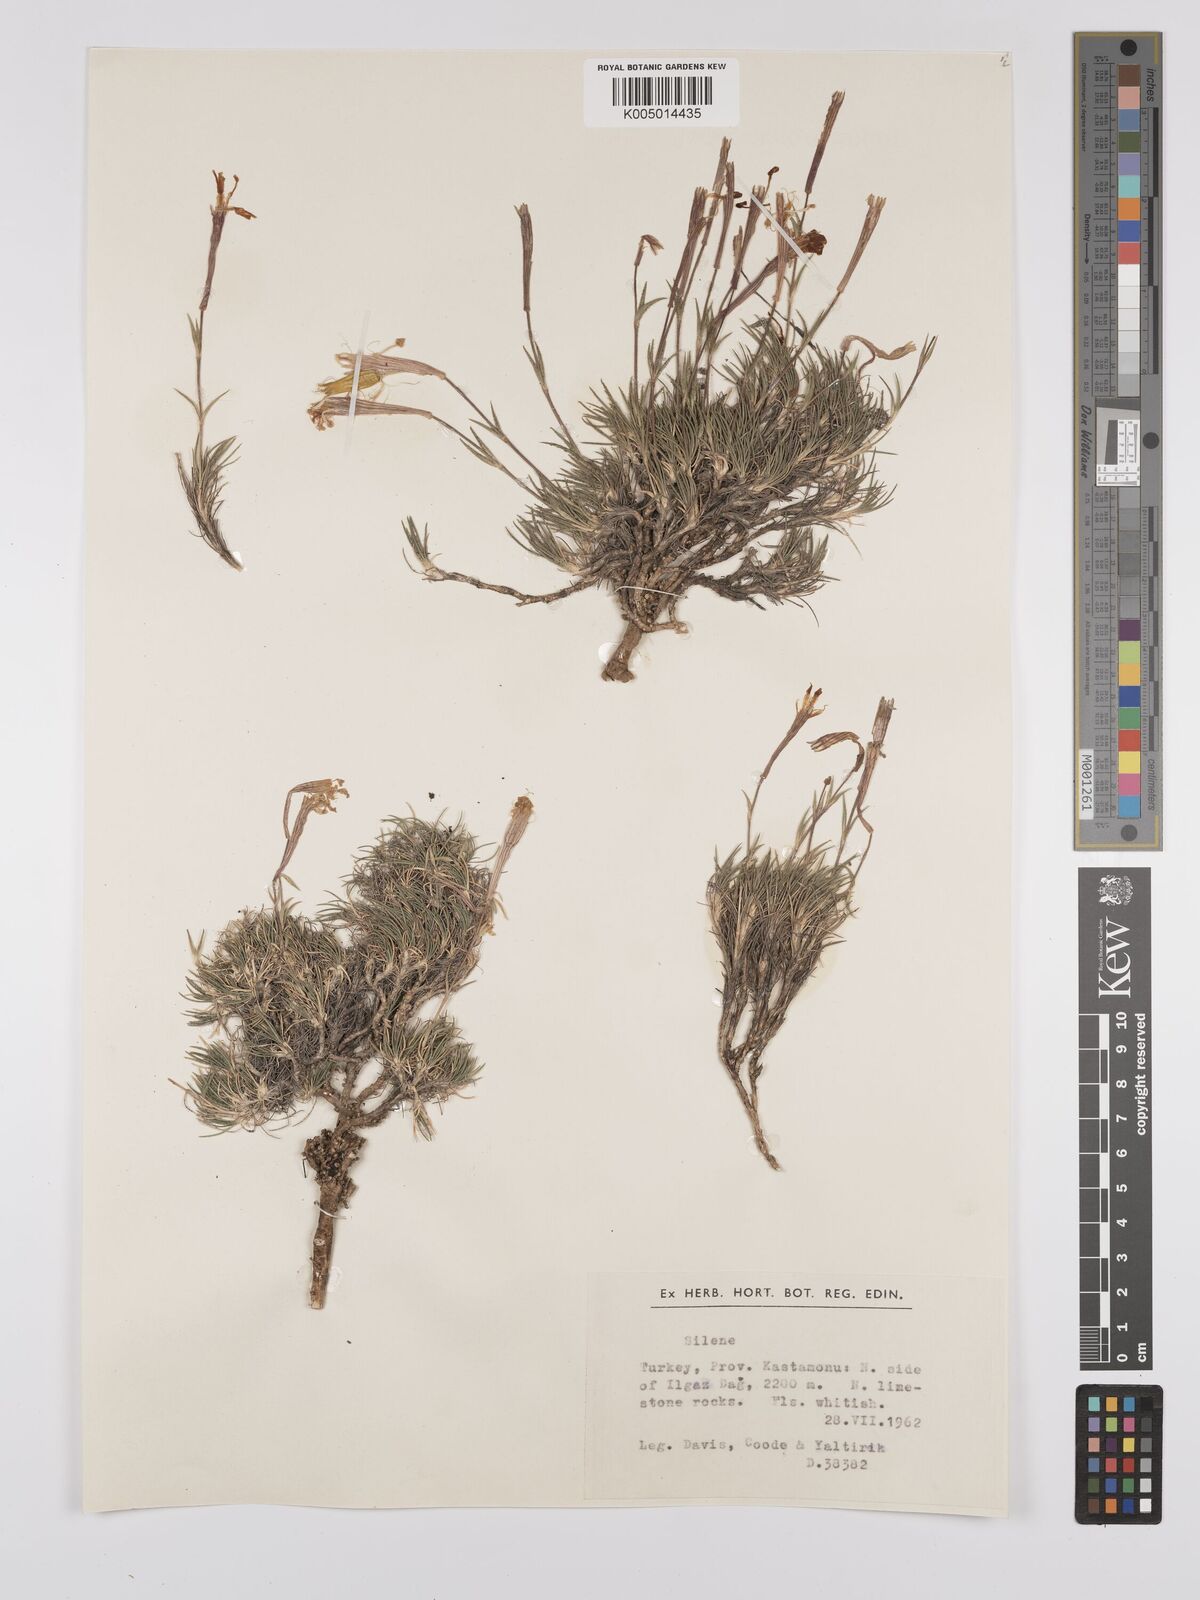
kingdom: Plantae
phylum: Tracheophyta
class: Magnoliopsida
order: Caryophyllales
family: Caryophyllaceae
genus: Silene
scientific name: Silene
